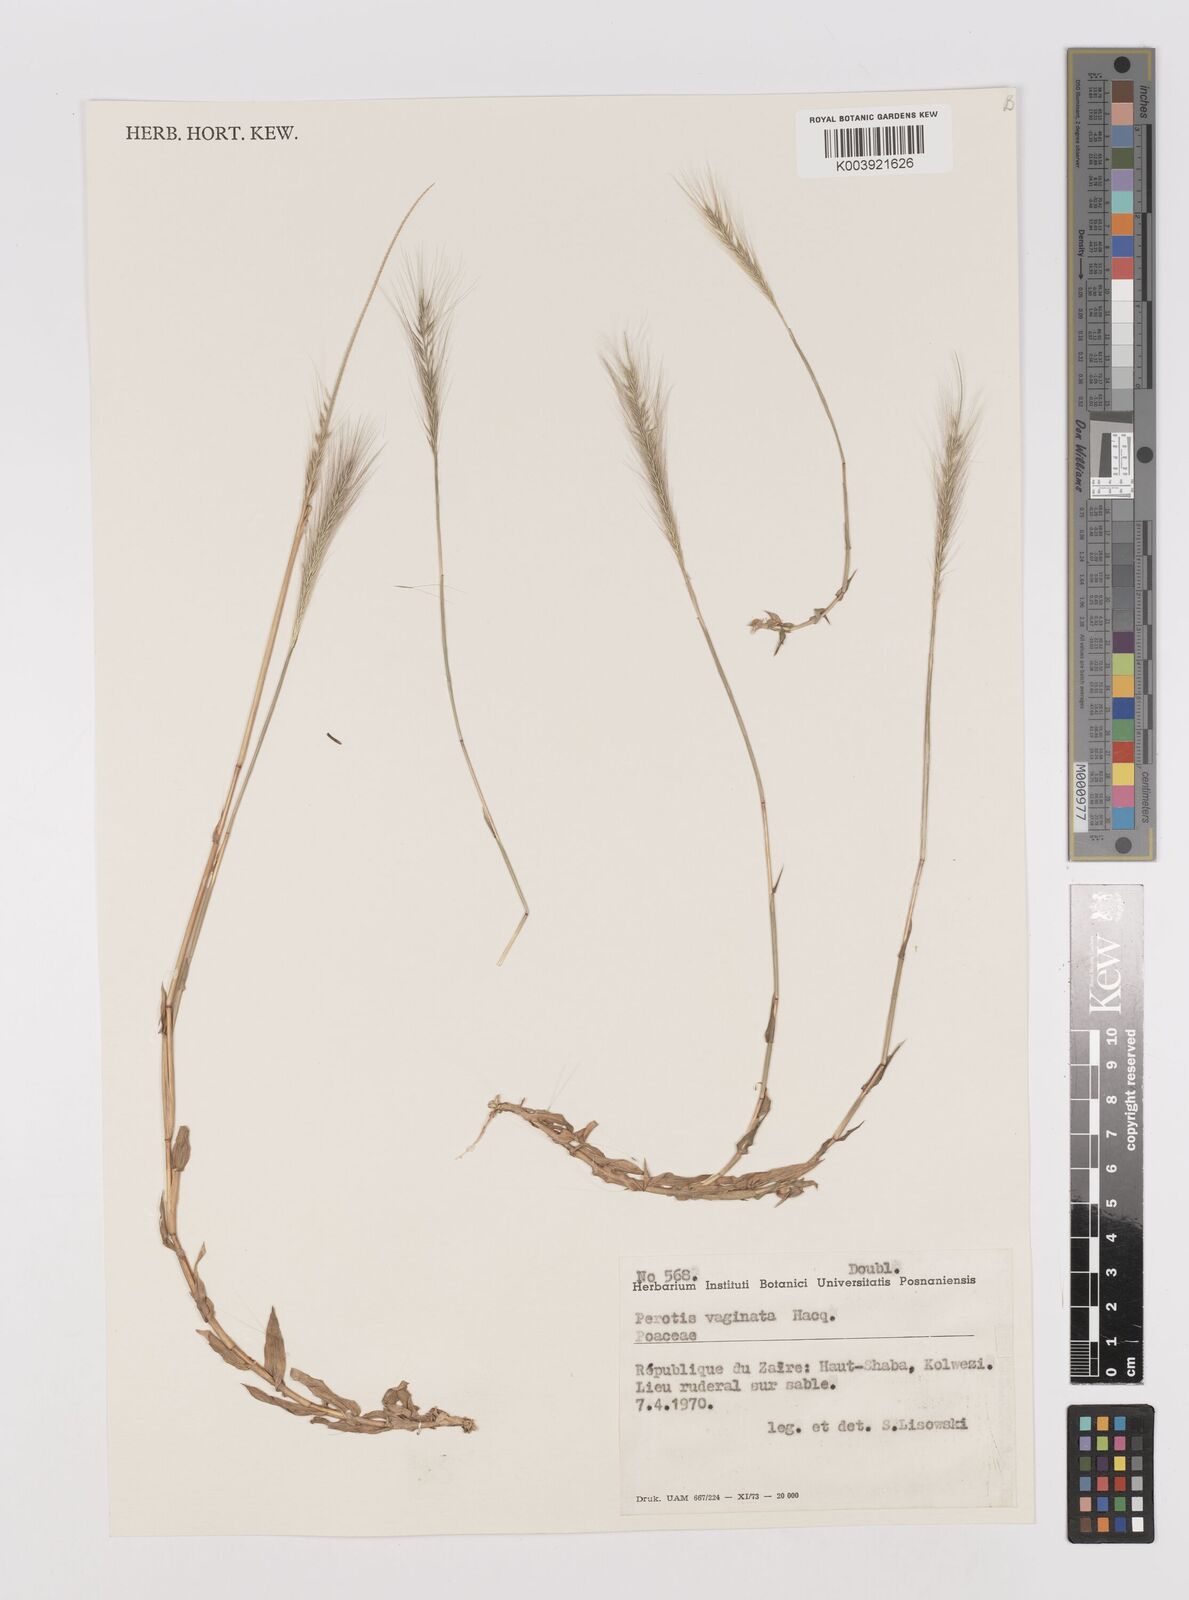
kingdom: Plantae
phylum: Tracheophyta
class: Liliopsida
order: Poales
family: Poaceae
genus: Perotis
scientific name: Perotis vaginata
